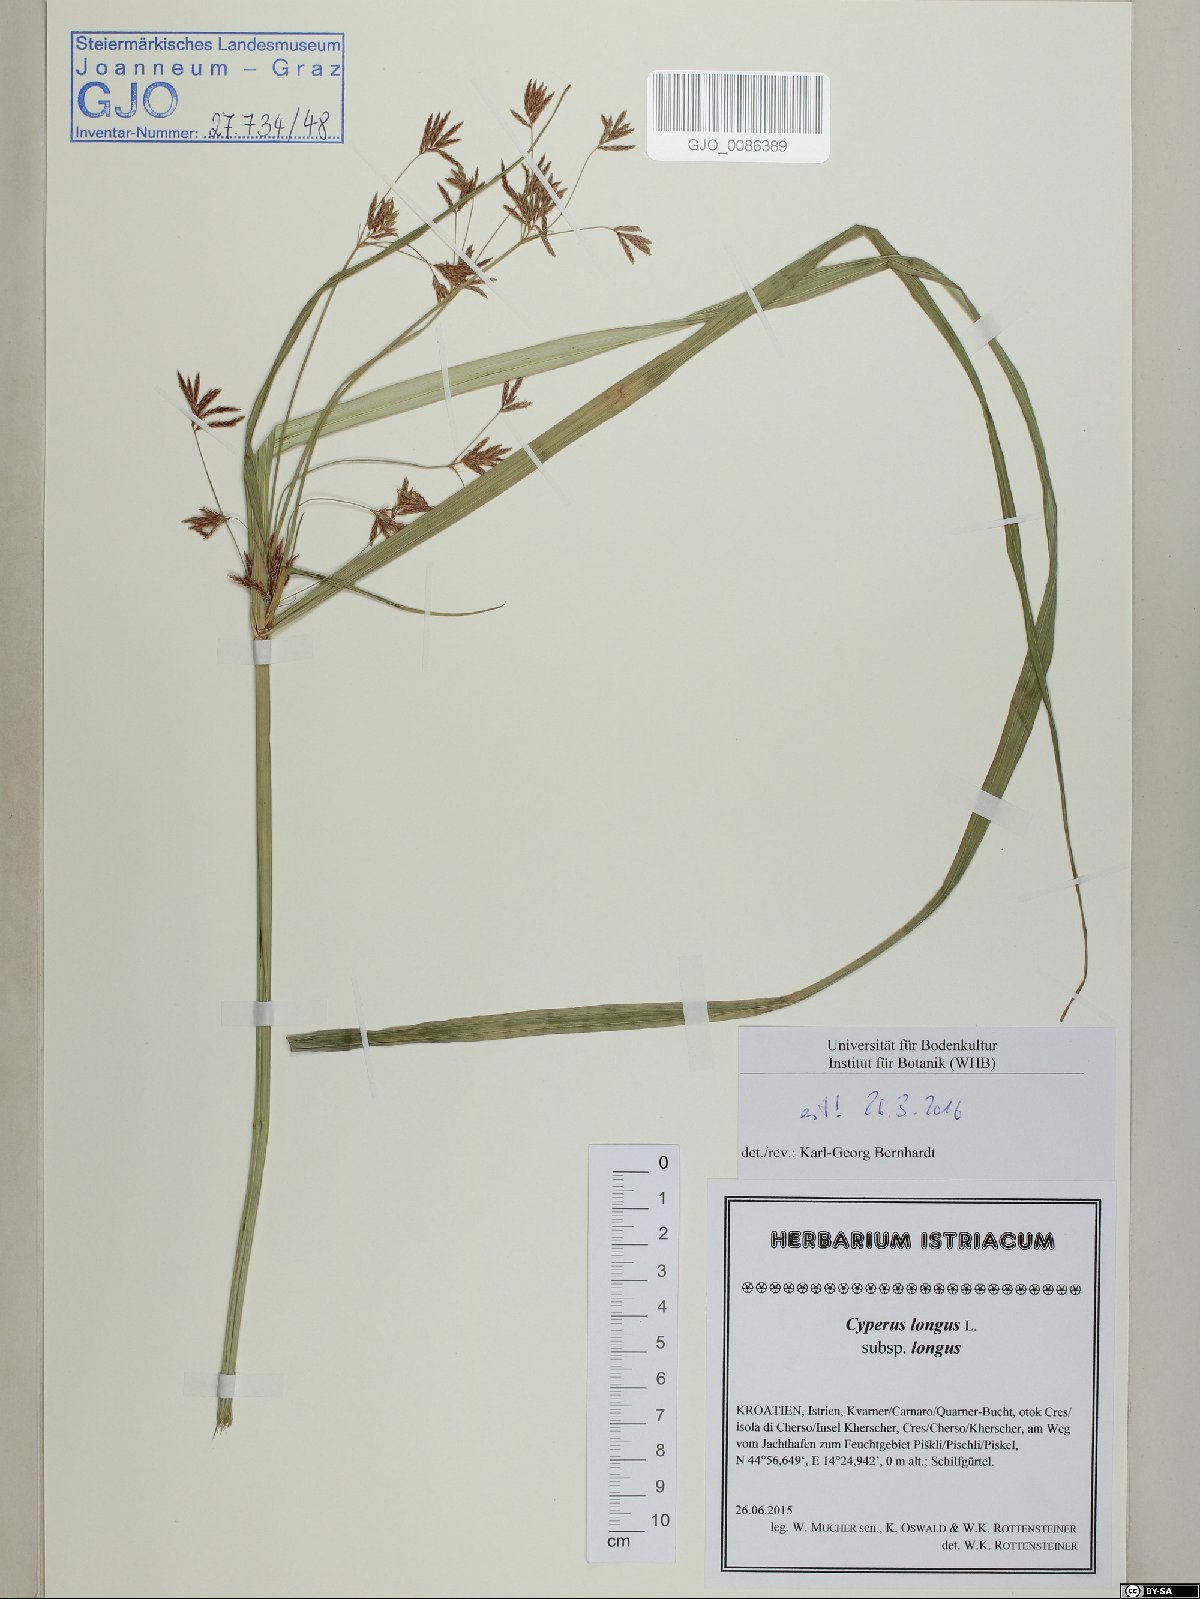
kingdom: Plantae
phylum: Tracheophyta
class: Liliopsida
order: Poales
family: Cyperaceae
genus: Cyperus
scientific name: Cyperus longus
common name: Galingale
